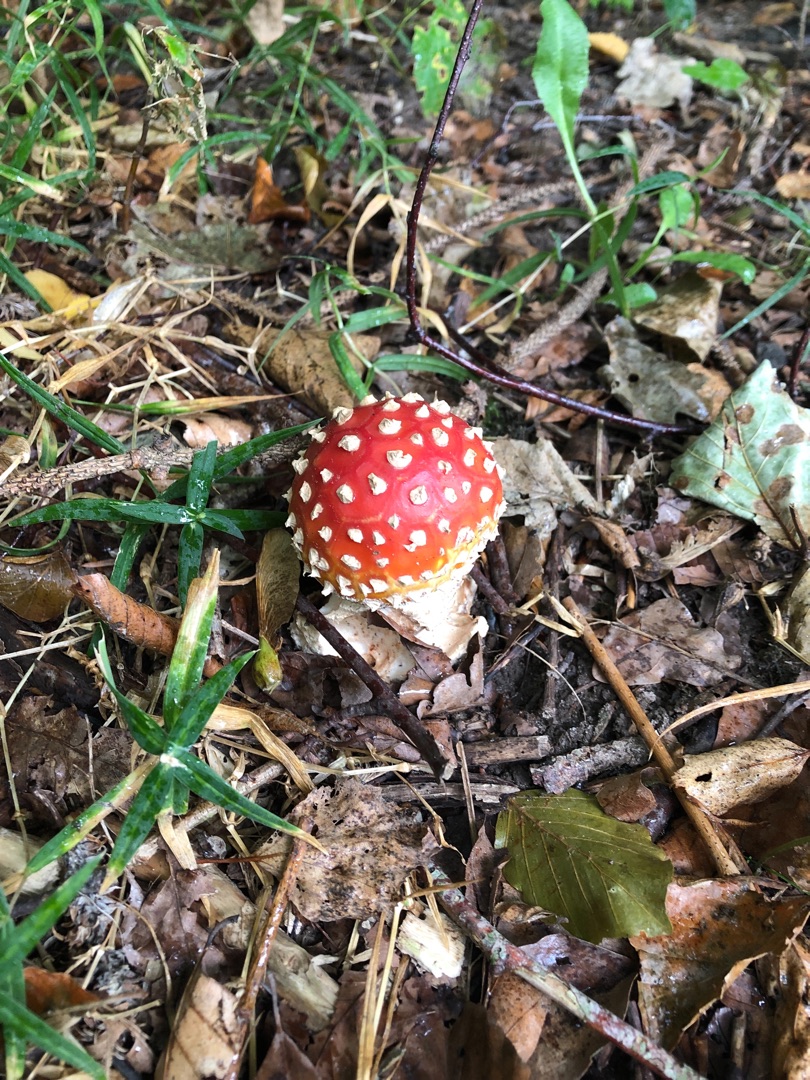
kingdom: Fungi
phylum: Basidiomycota
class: Agaricomycetes
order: Agaricales
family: Amanitaceae
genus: Amanita
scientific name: Amanita muscaria
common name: Rød fluesvamp
